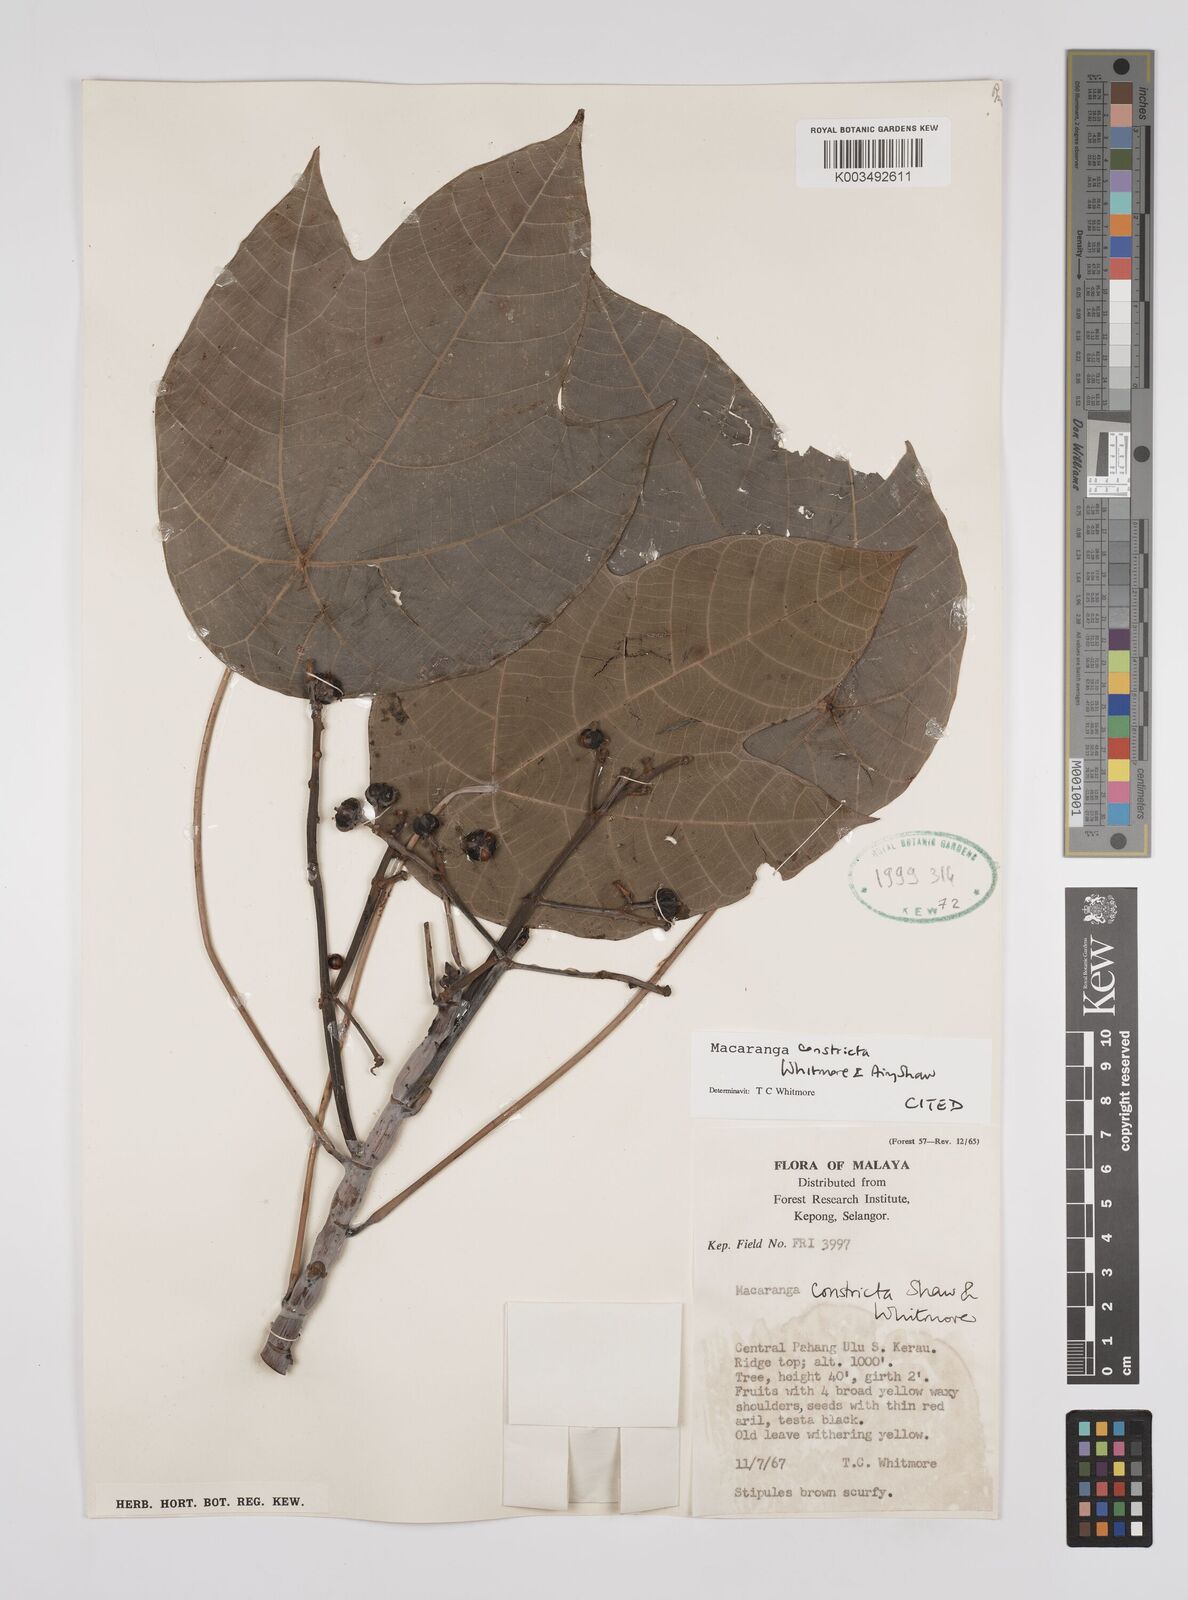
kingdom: Plantae
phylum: Tracheophyta
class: Magnoliopsida
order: Malpighiales
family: Euphorbiaceae
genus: Macaranga
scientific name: Macaranga constricta
